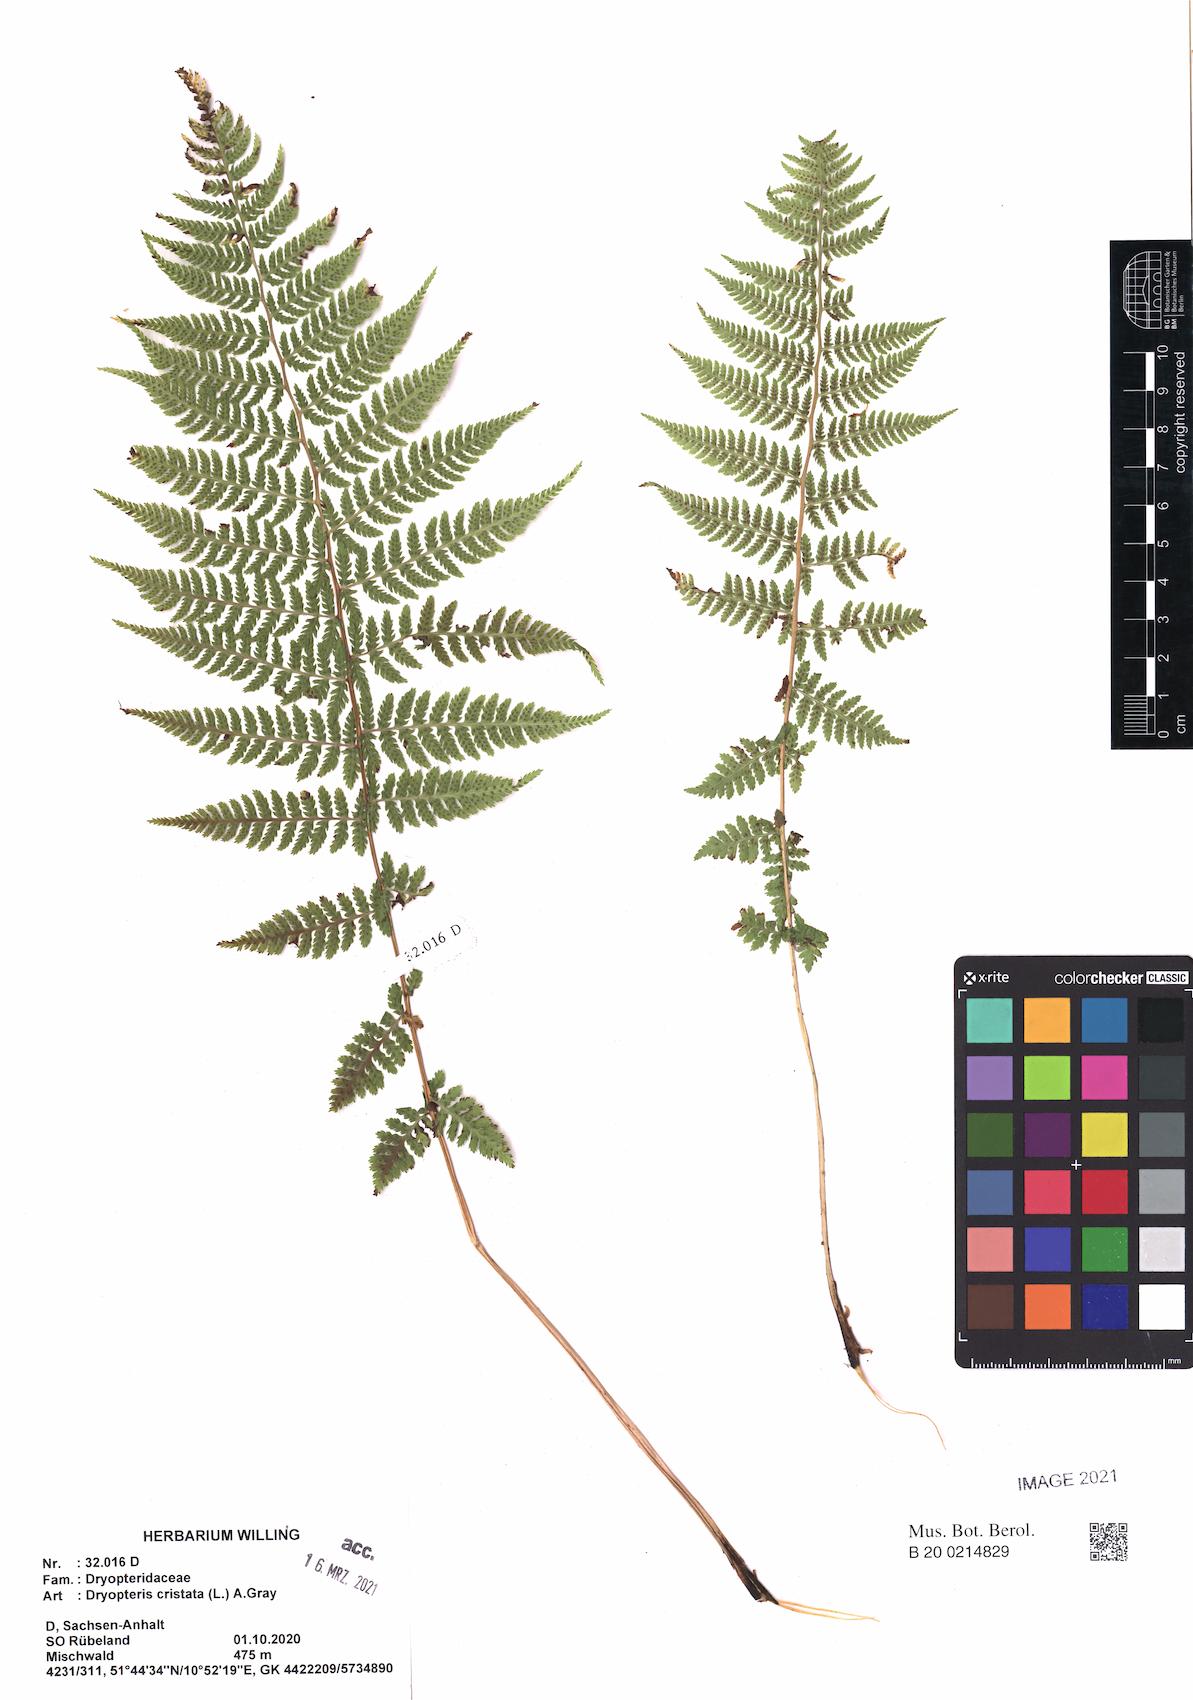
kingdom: Plantae
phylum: Tracheophyta
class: Polypodiopsida
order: Polypodiales
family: Athyriaceae
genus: Athyrium
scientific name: Athyrium filix-femina
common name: Lady fern
